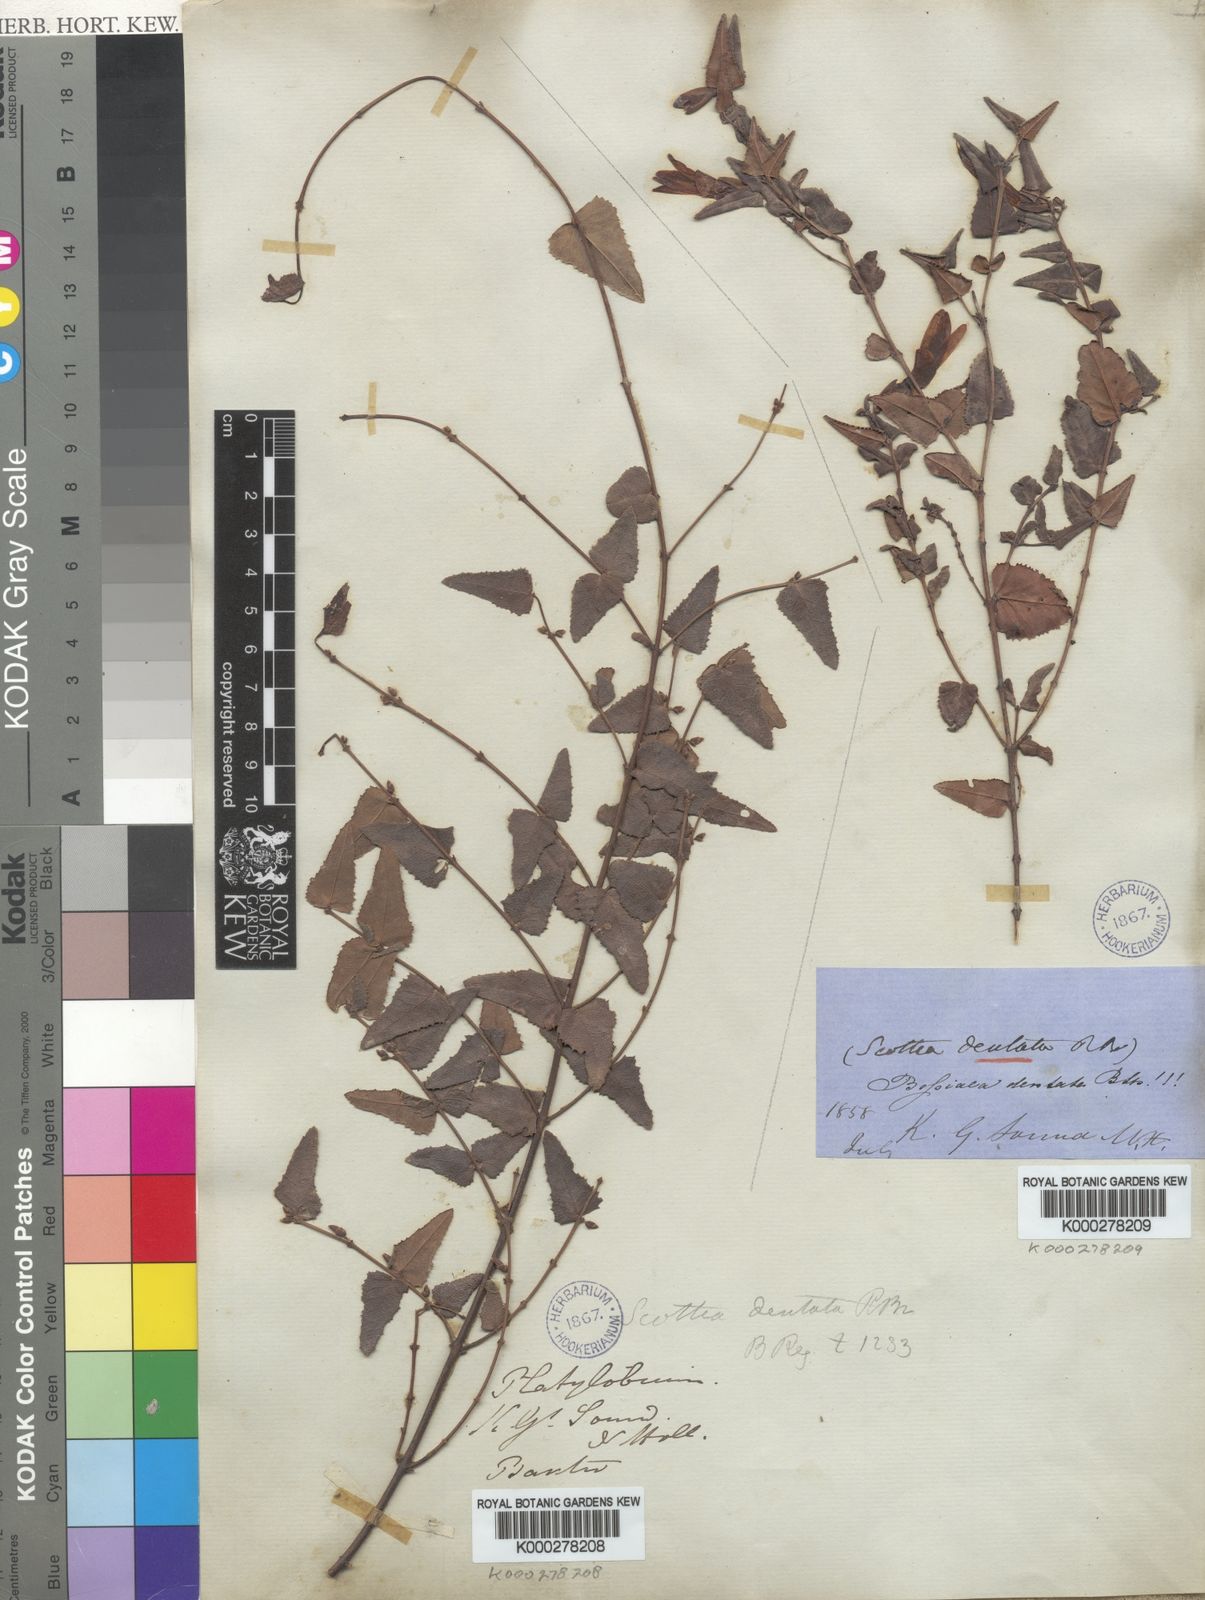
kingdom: Plantae
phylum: Tracheophyta
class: Magnoliopsida
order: Fabales
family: Fabaceae
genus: Bossiaea
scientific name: Bossiaea dentata
